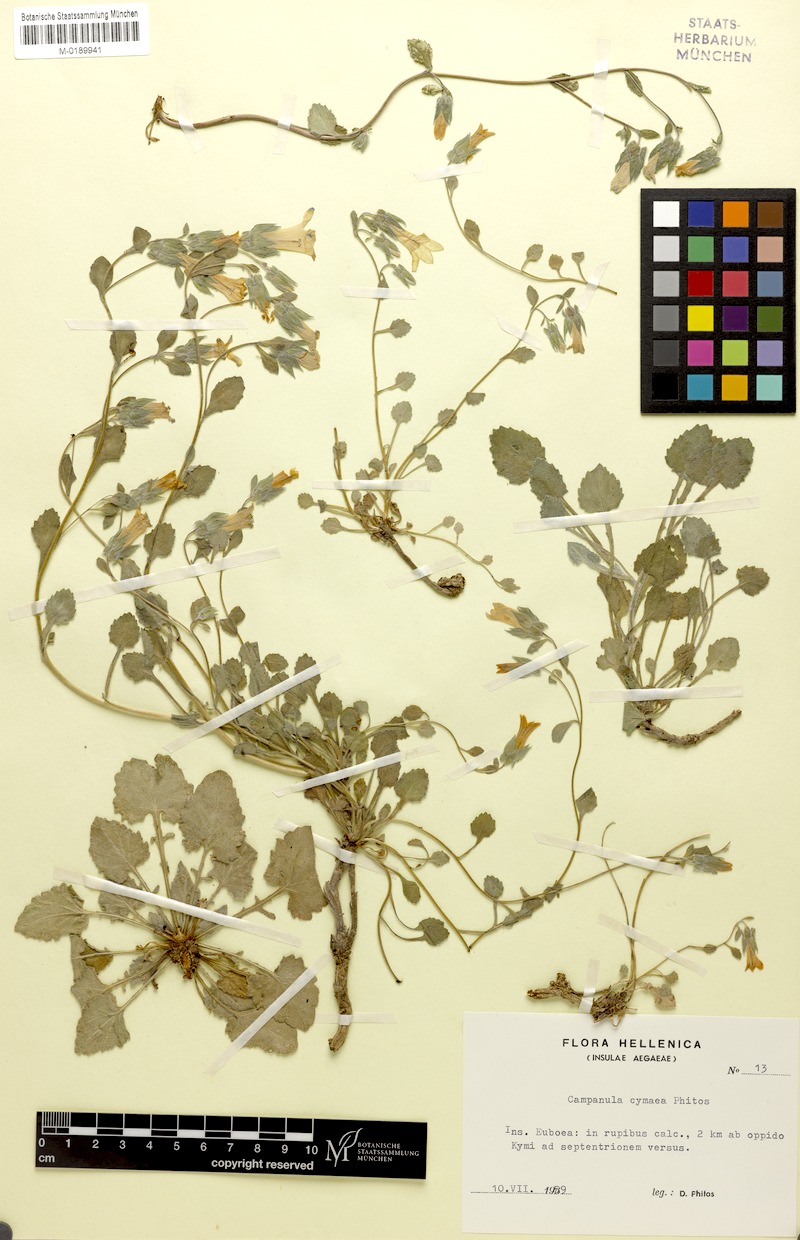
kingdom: Plantae
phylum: Tracheophyta
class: Magnoliopsida
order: Asterales
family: Campanulaceae
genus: Campanula
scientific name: Campanula cymaea
